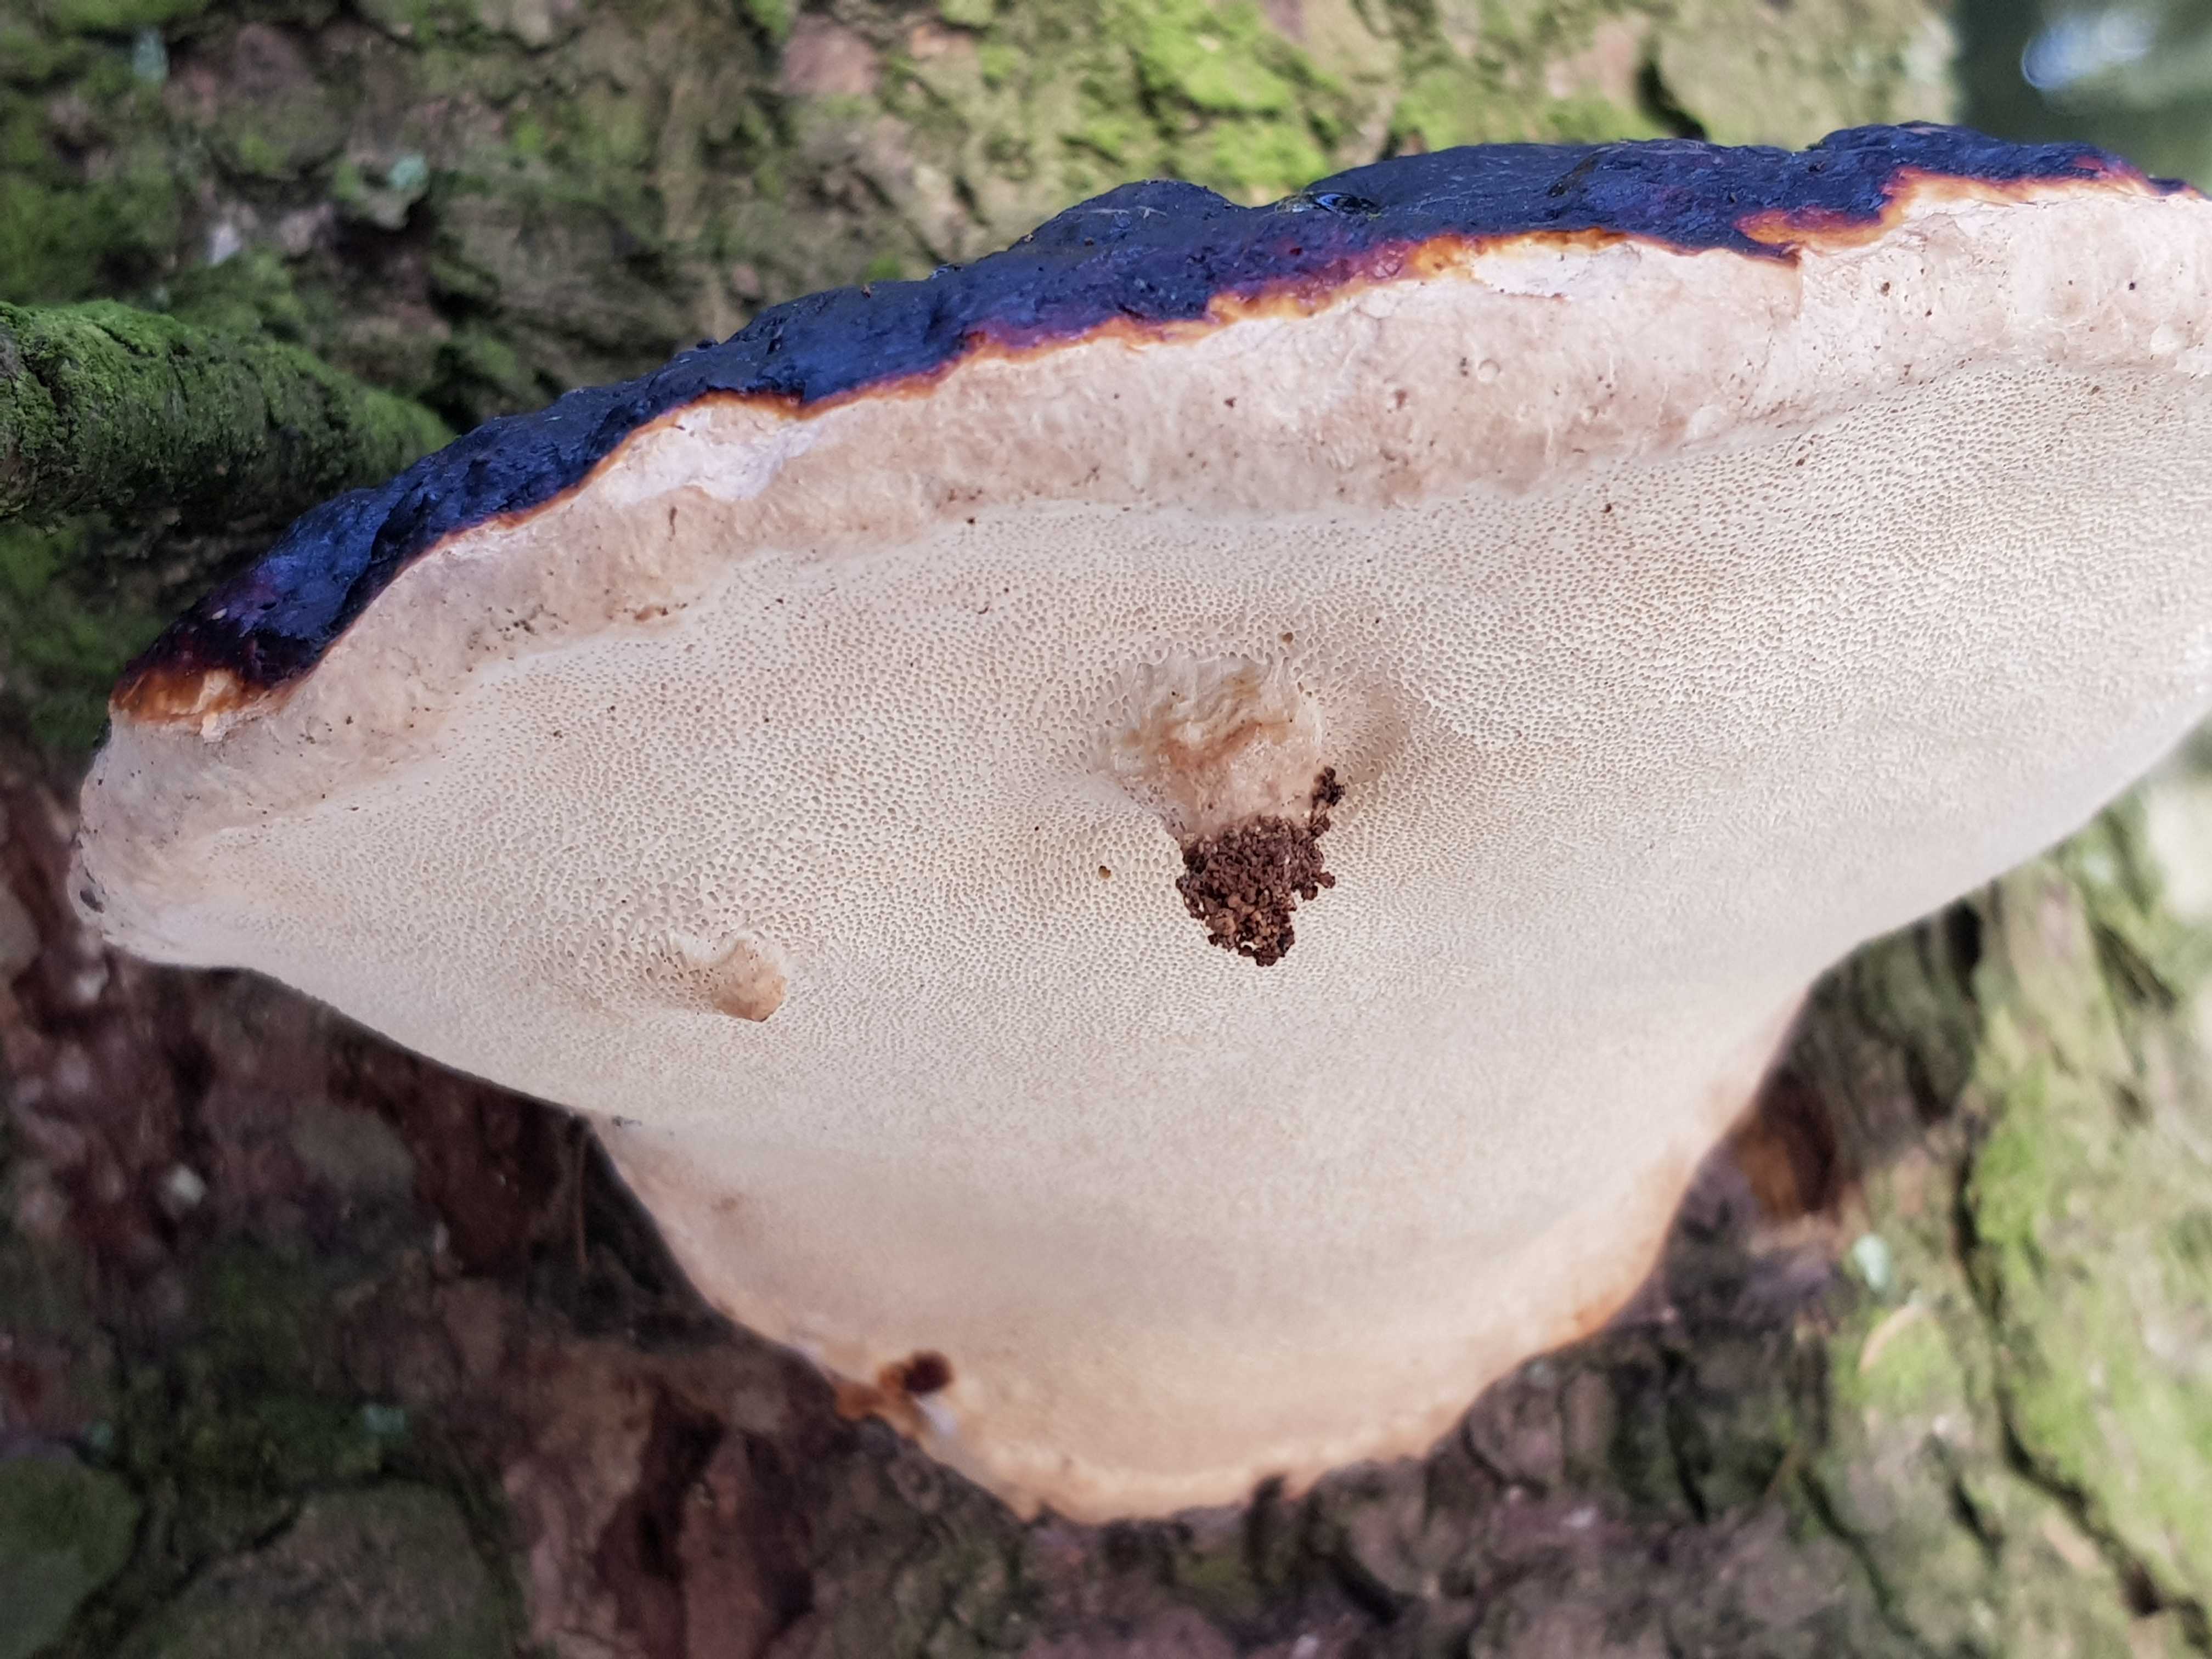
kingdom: Fungi
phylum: Basidiomycota
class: Agaricomycetes
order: Polyporales
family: Fomitopsidaceae
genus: Fomitopsis
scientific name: Fomitopsis pinicola
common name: randbæltet hovporesvamp
